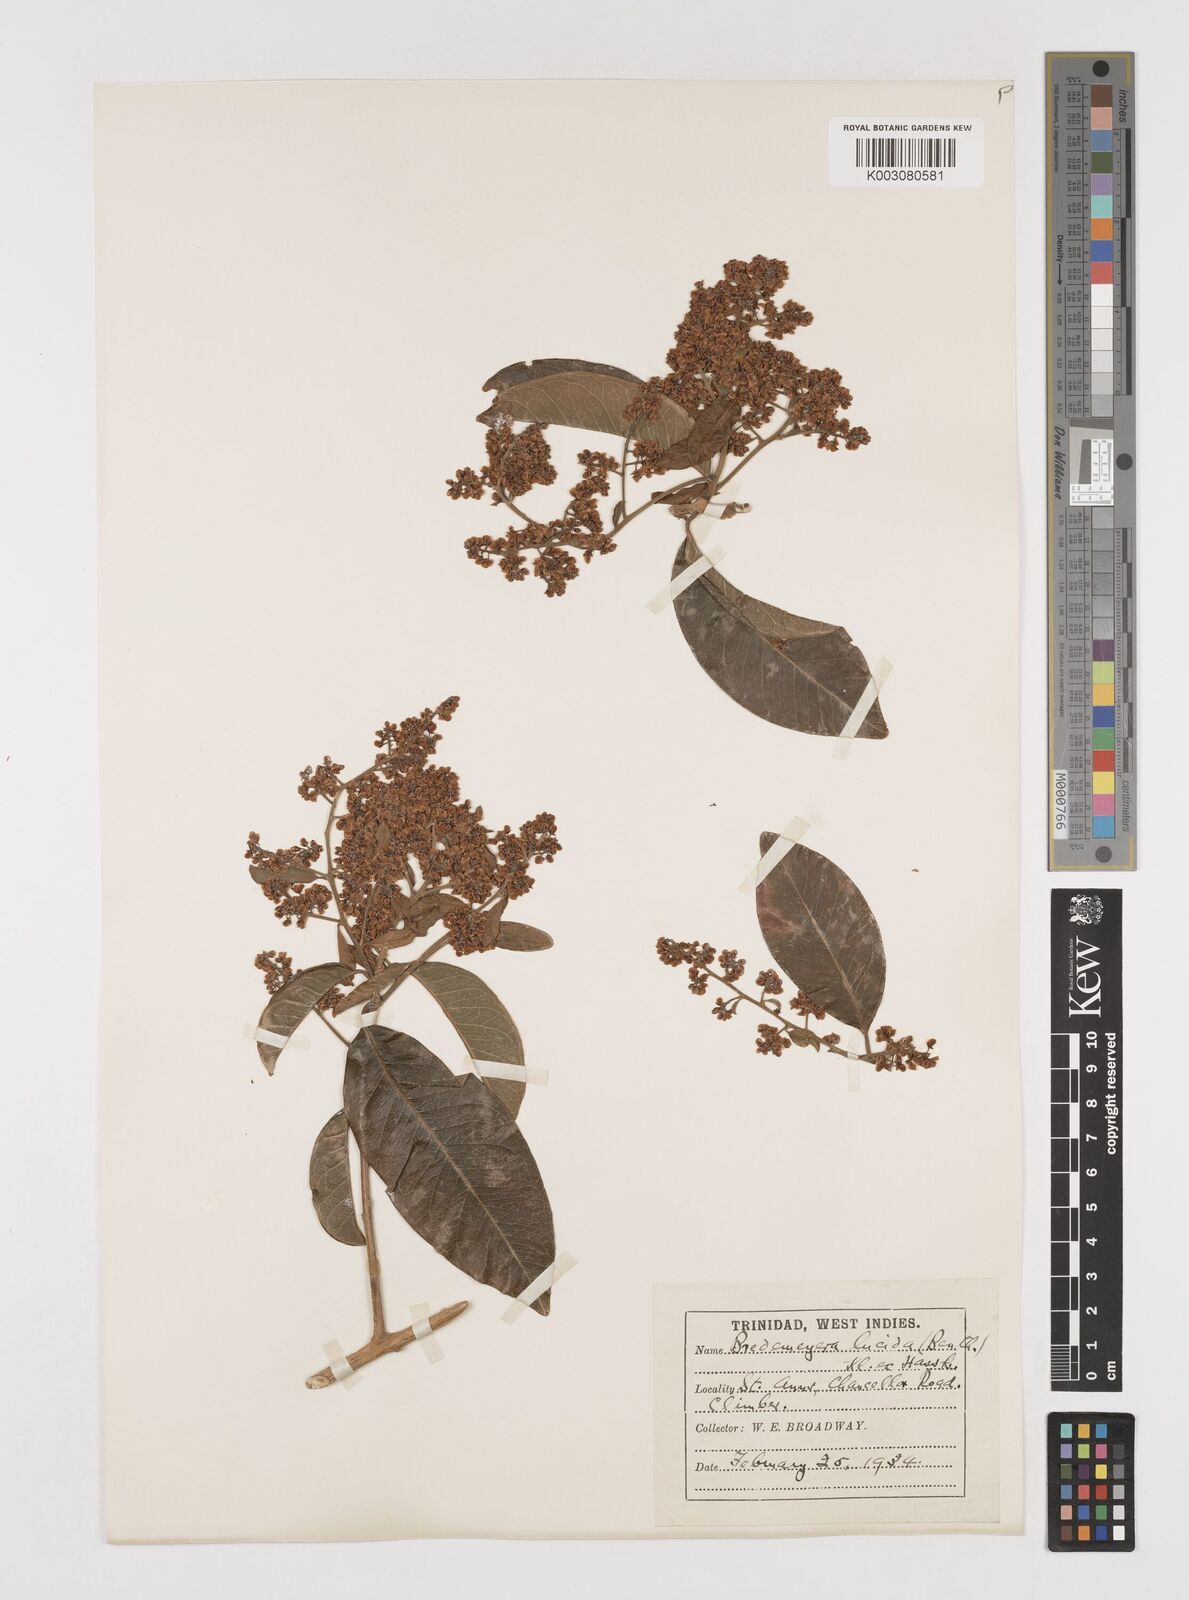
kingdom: Plantae
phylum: Tracheophyta
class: Magnoliopsida
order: Fabales
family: Polygalaceae
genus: Bredemeyera
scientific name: Bredemeyera lucida
